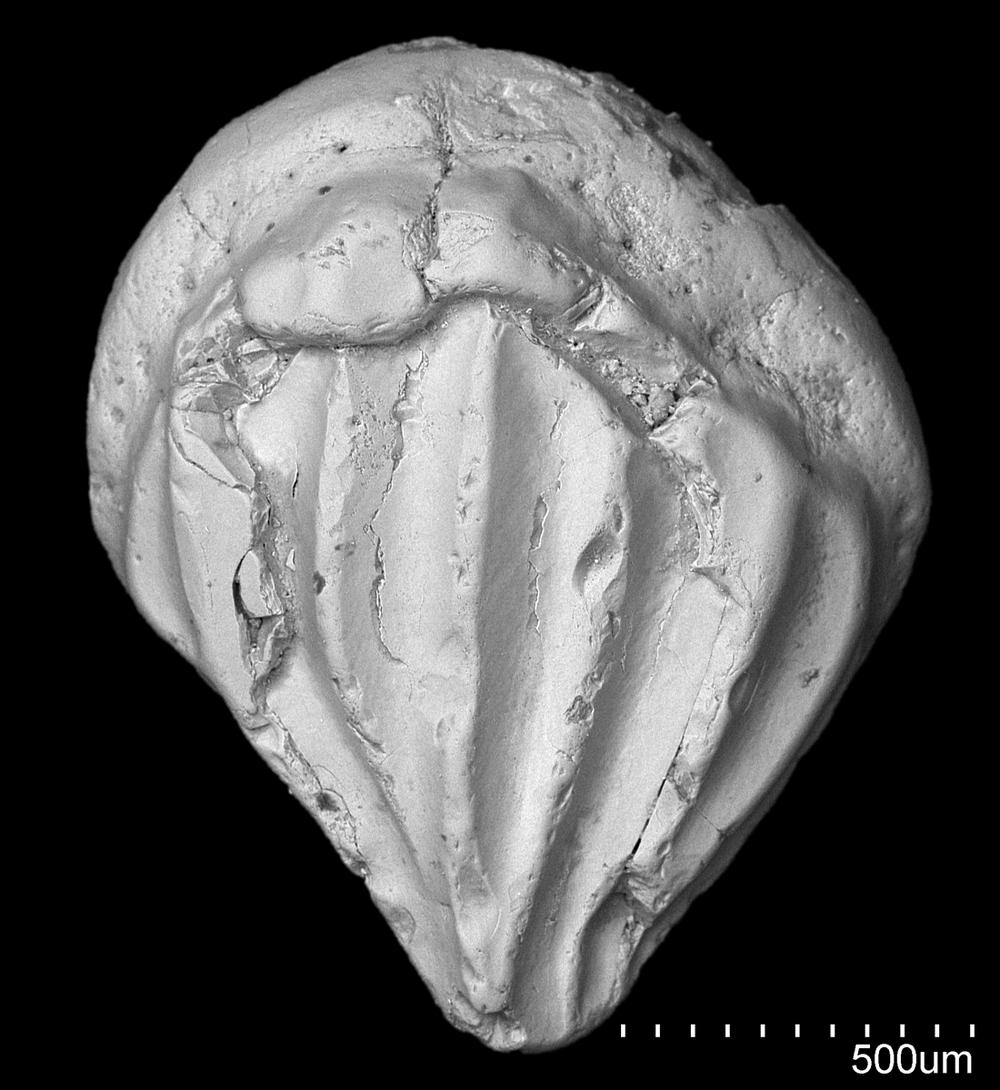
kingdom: Animalia
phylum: Chordata
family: Climatiidae
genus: Nostolepis
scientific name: Nostolepis
